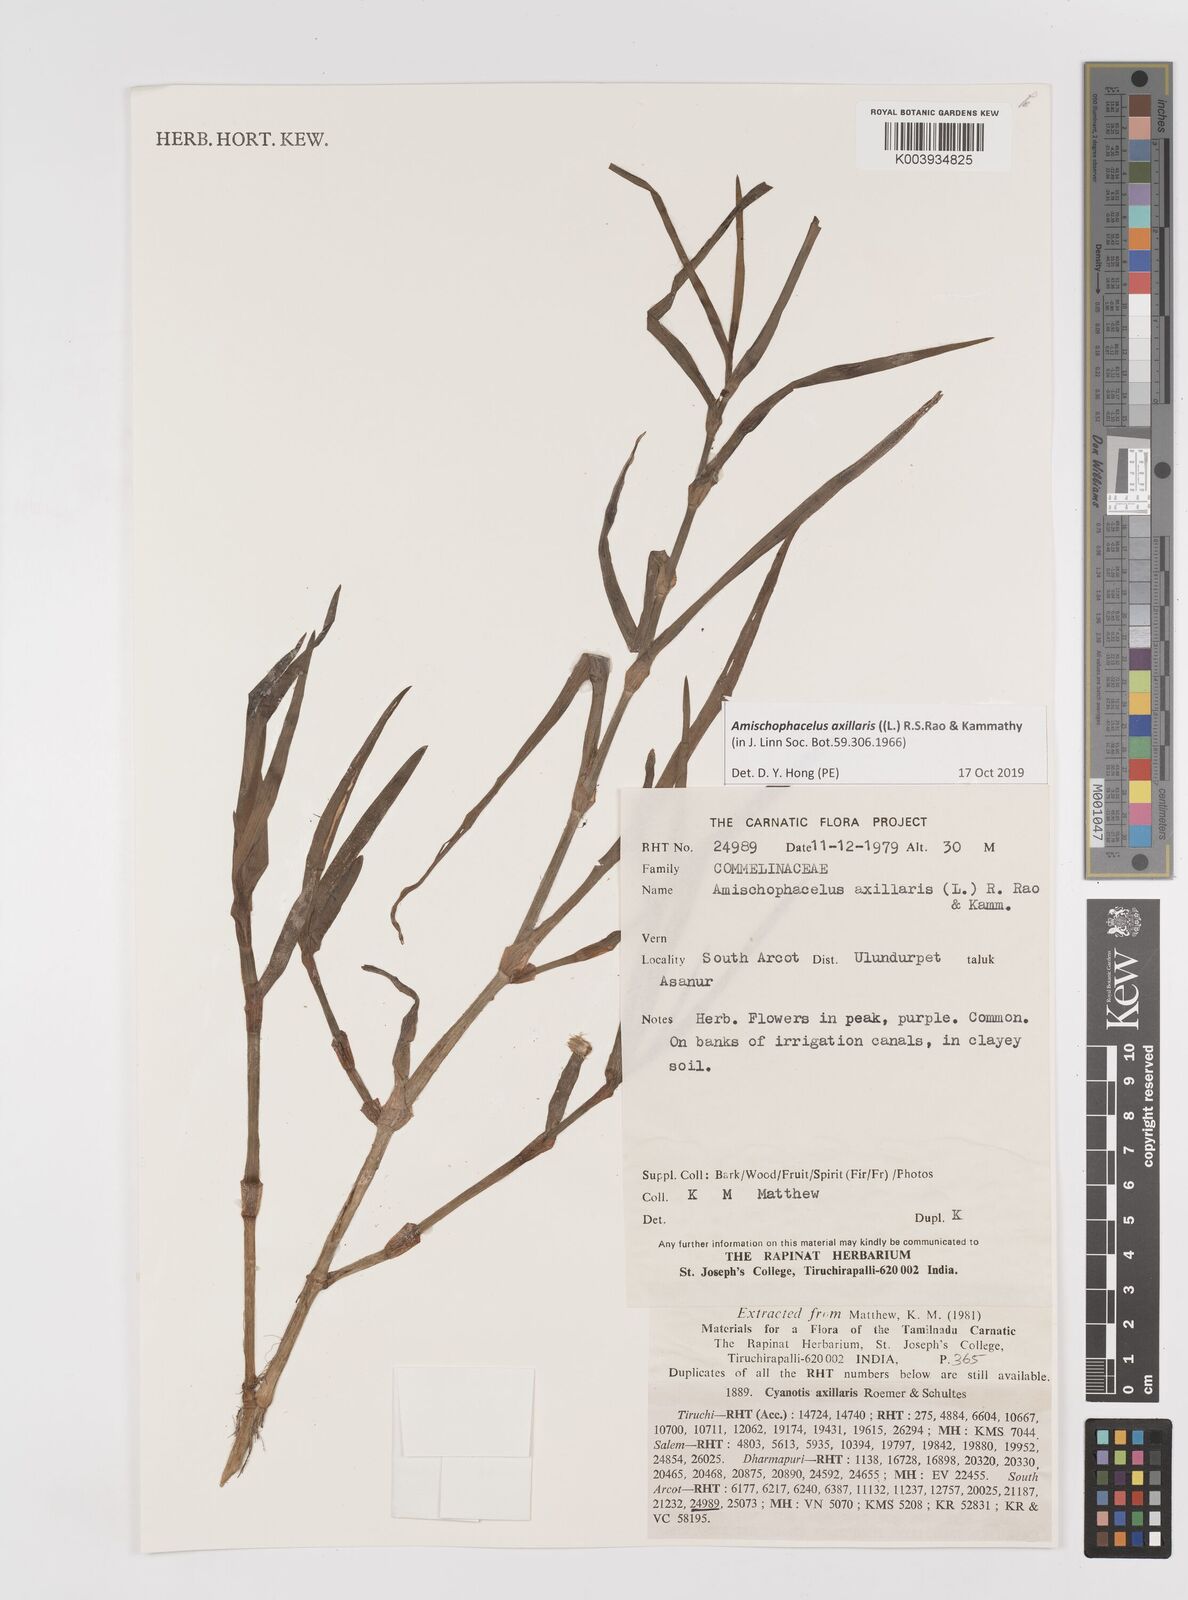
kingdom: Plantae
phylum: Tracheophyta
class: Liliopsida
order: Commelinales
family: Commelinaceae
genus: Cyanotis
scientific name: Cyanotis axillaris
